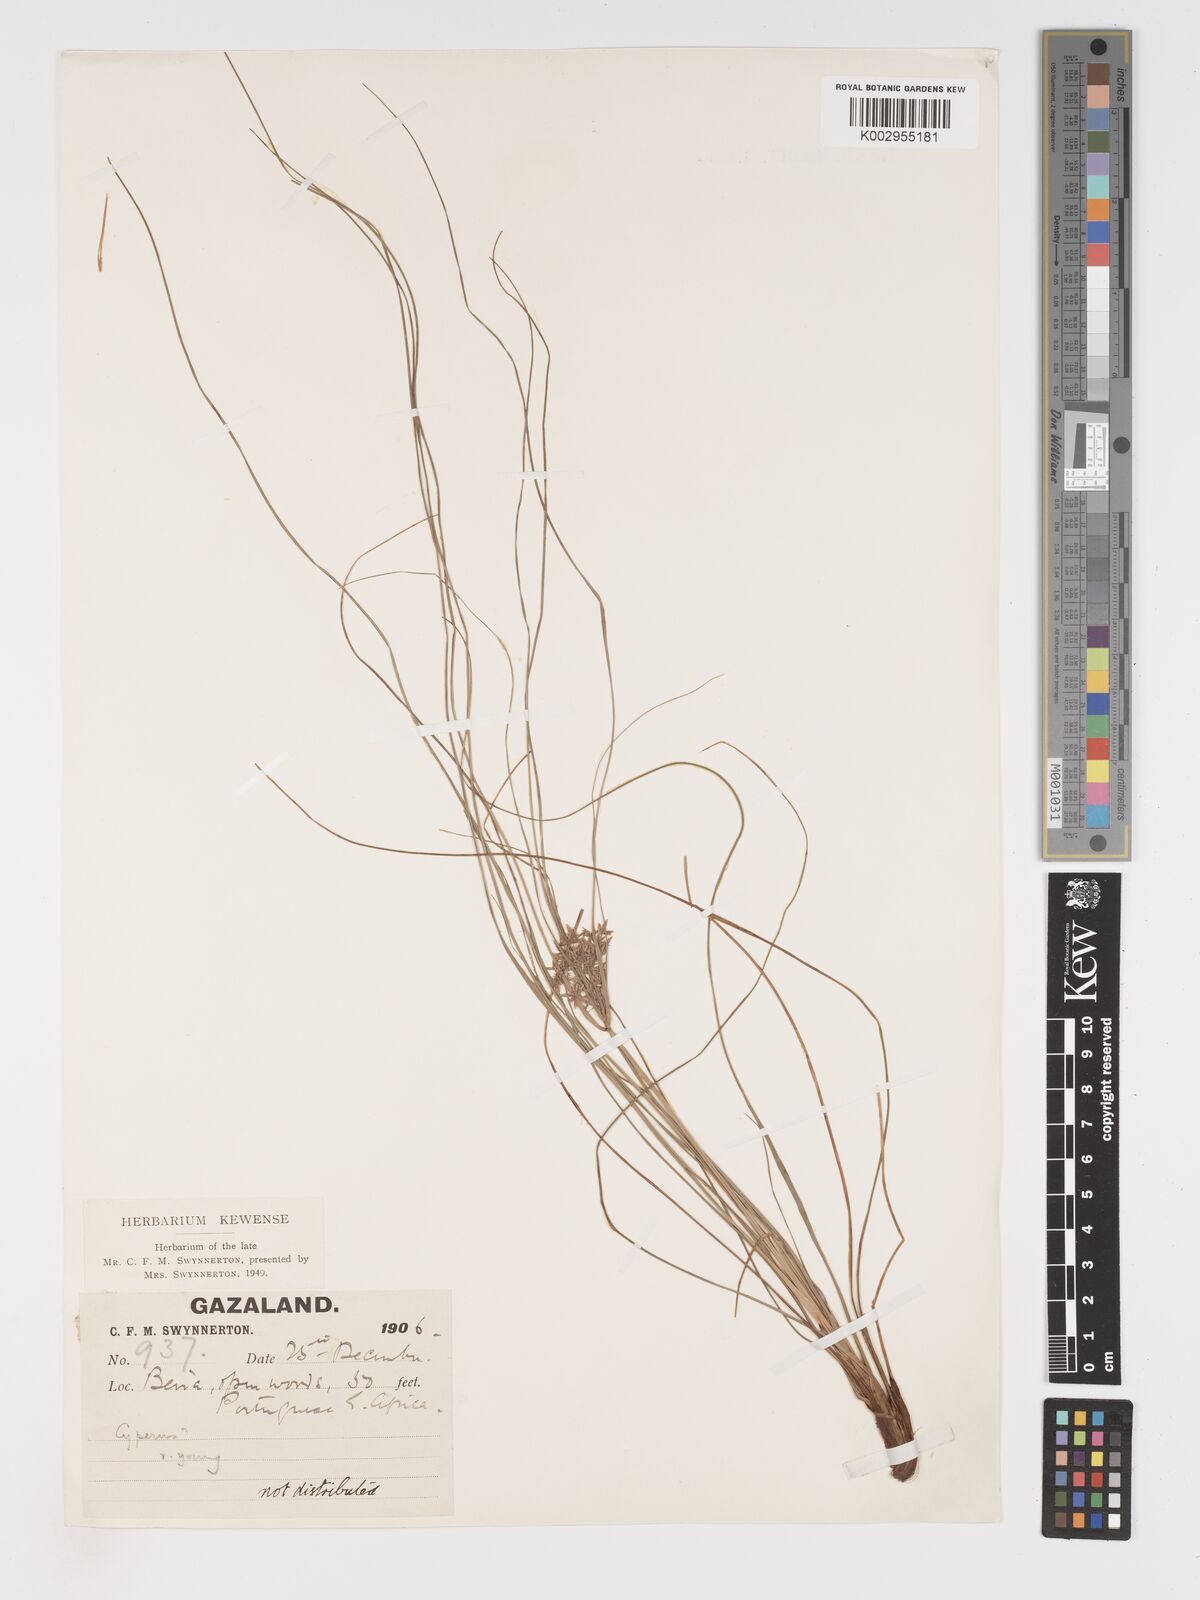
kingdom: Plantae
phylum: Tracheophyta
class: Liliopsida
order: Poales
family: Cyperaceae
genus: Cyperus
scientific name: Cyperus
